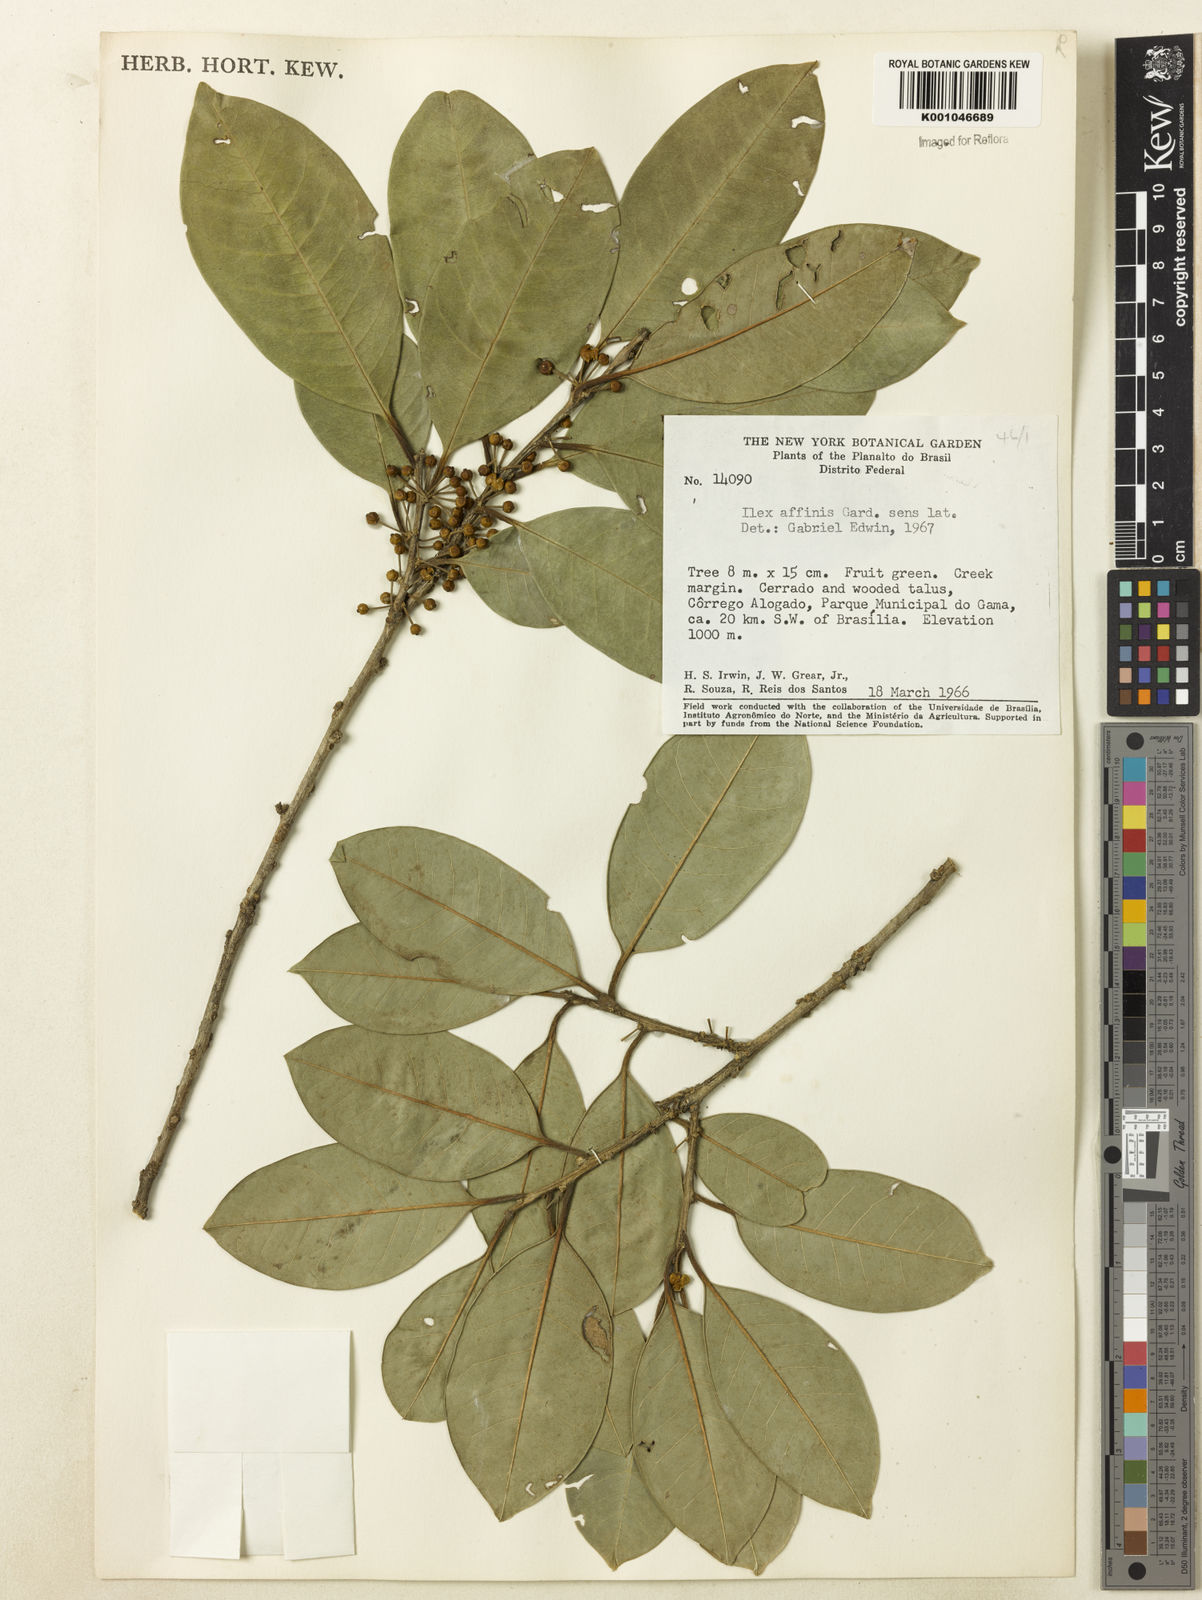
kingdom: Plantae
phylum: Tracheophyta
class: Magnoliopsida
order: Aquifoliales
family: Aquifoliaceae
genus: Ilex
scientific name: Ilex lundii
